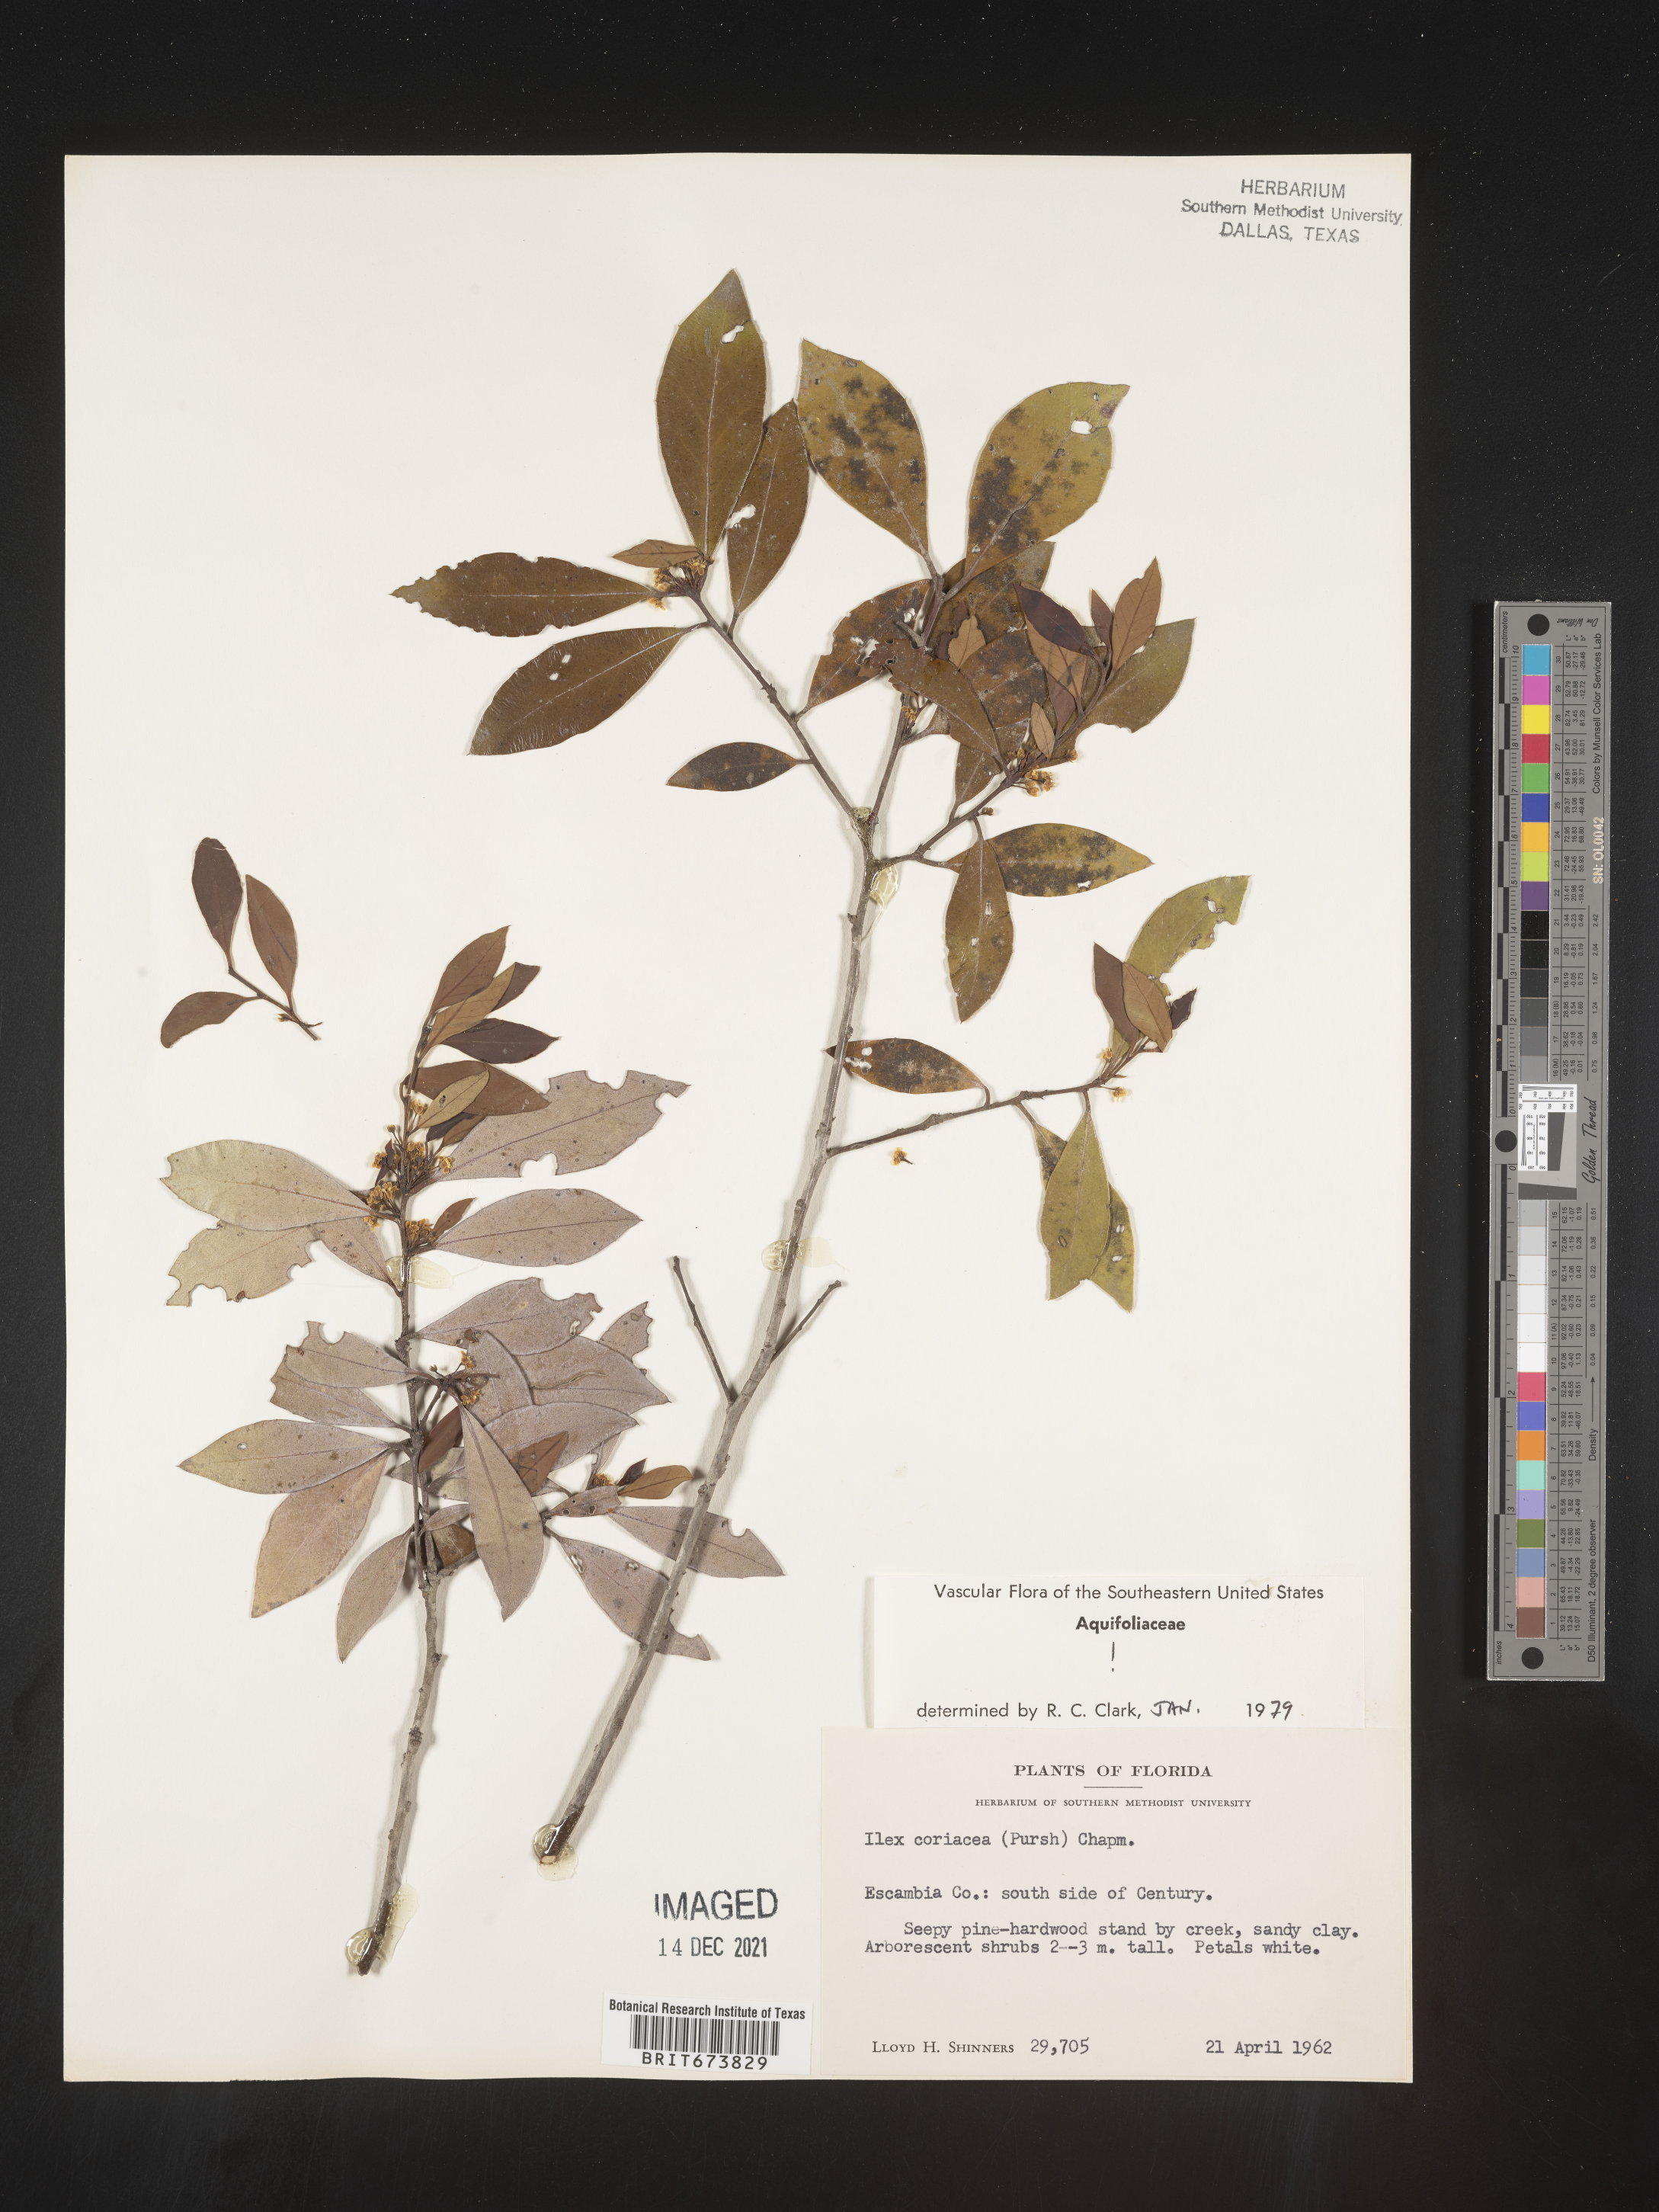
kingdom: Plantae
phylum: Tracheophyta
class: Magnoliopsida
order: Aquifoliales
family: Aquifoliaceae
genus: Ilex
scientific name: Ilex coriacea
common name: Sweet gallberry
